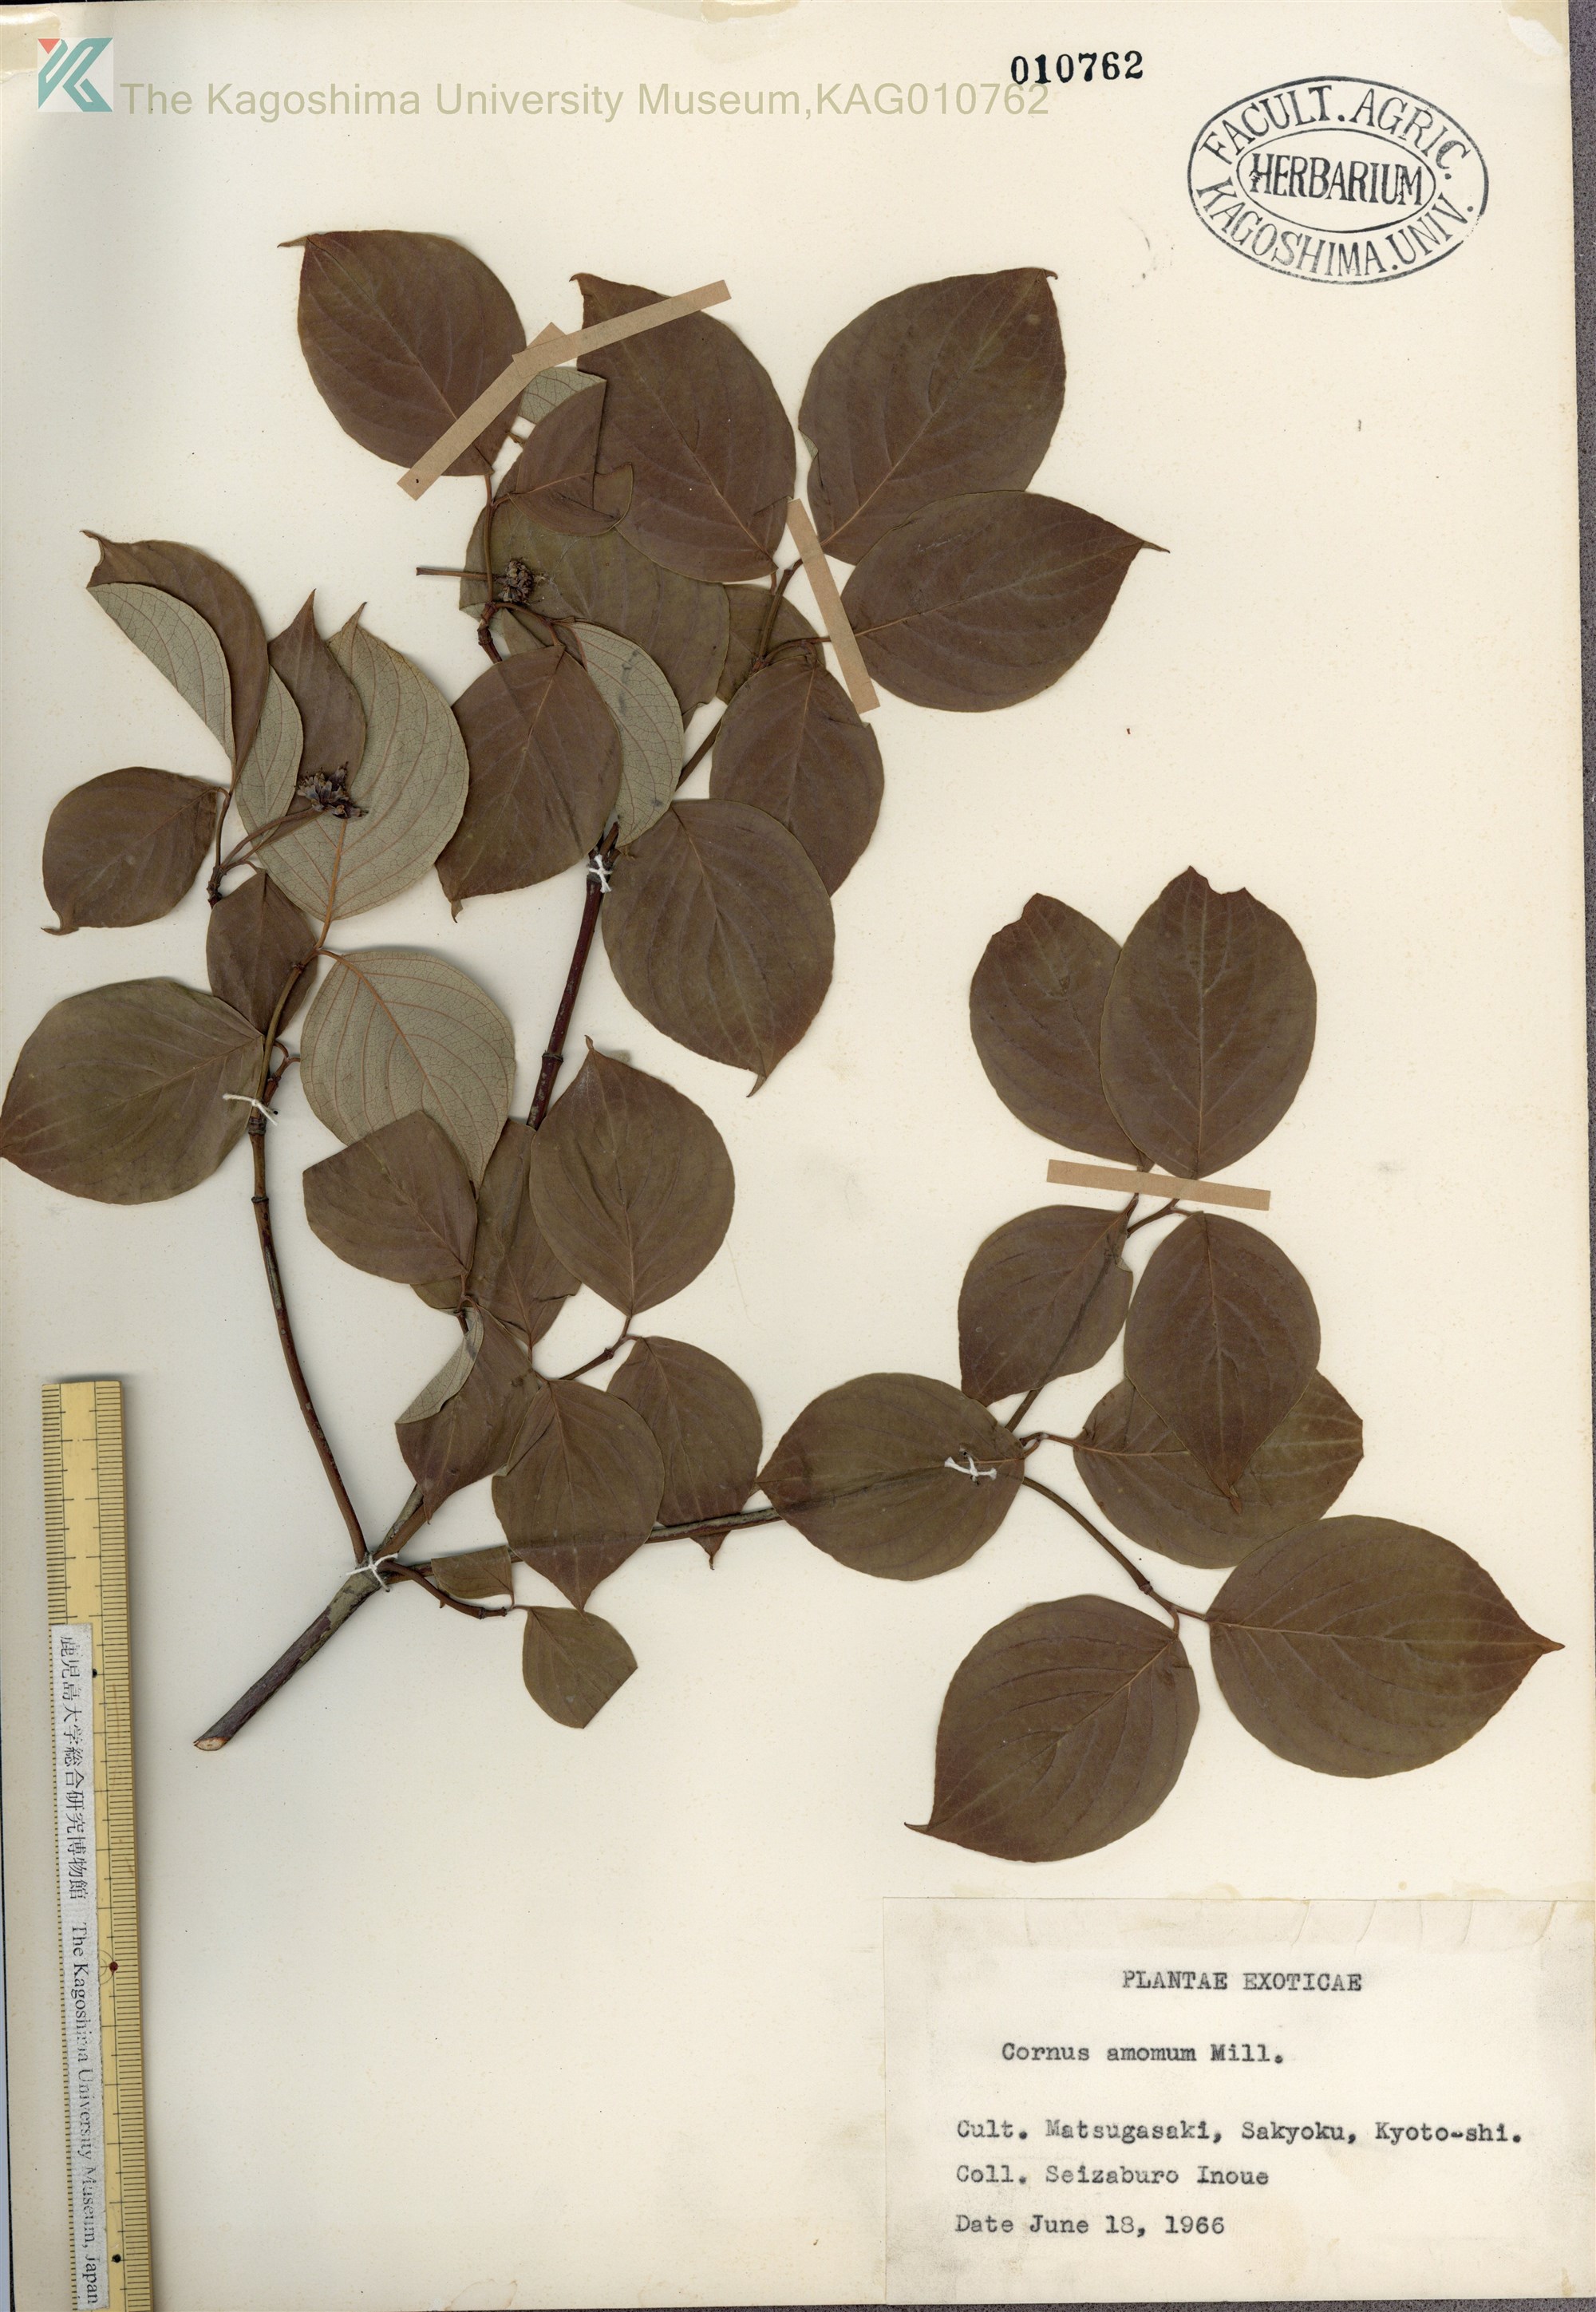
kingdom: Plantae
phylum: Tracheophyta
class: Magnoliopsida
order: Cornales
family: Cornaceae
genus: Cornus
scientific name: Cornus amomum
